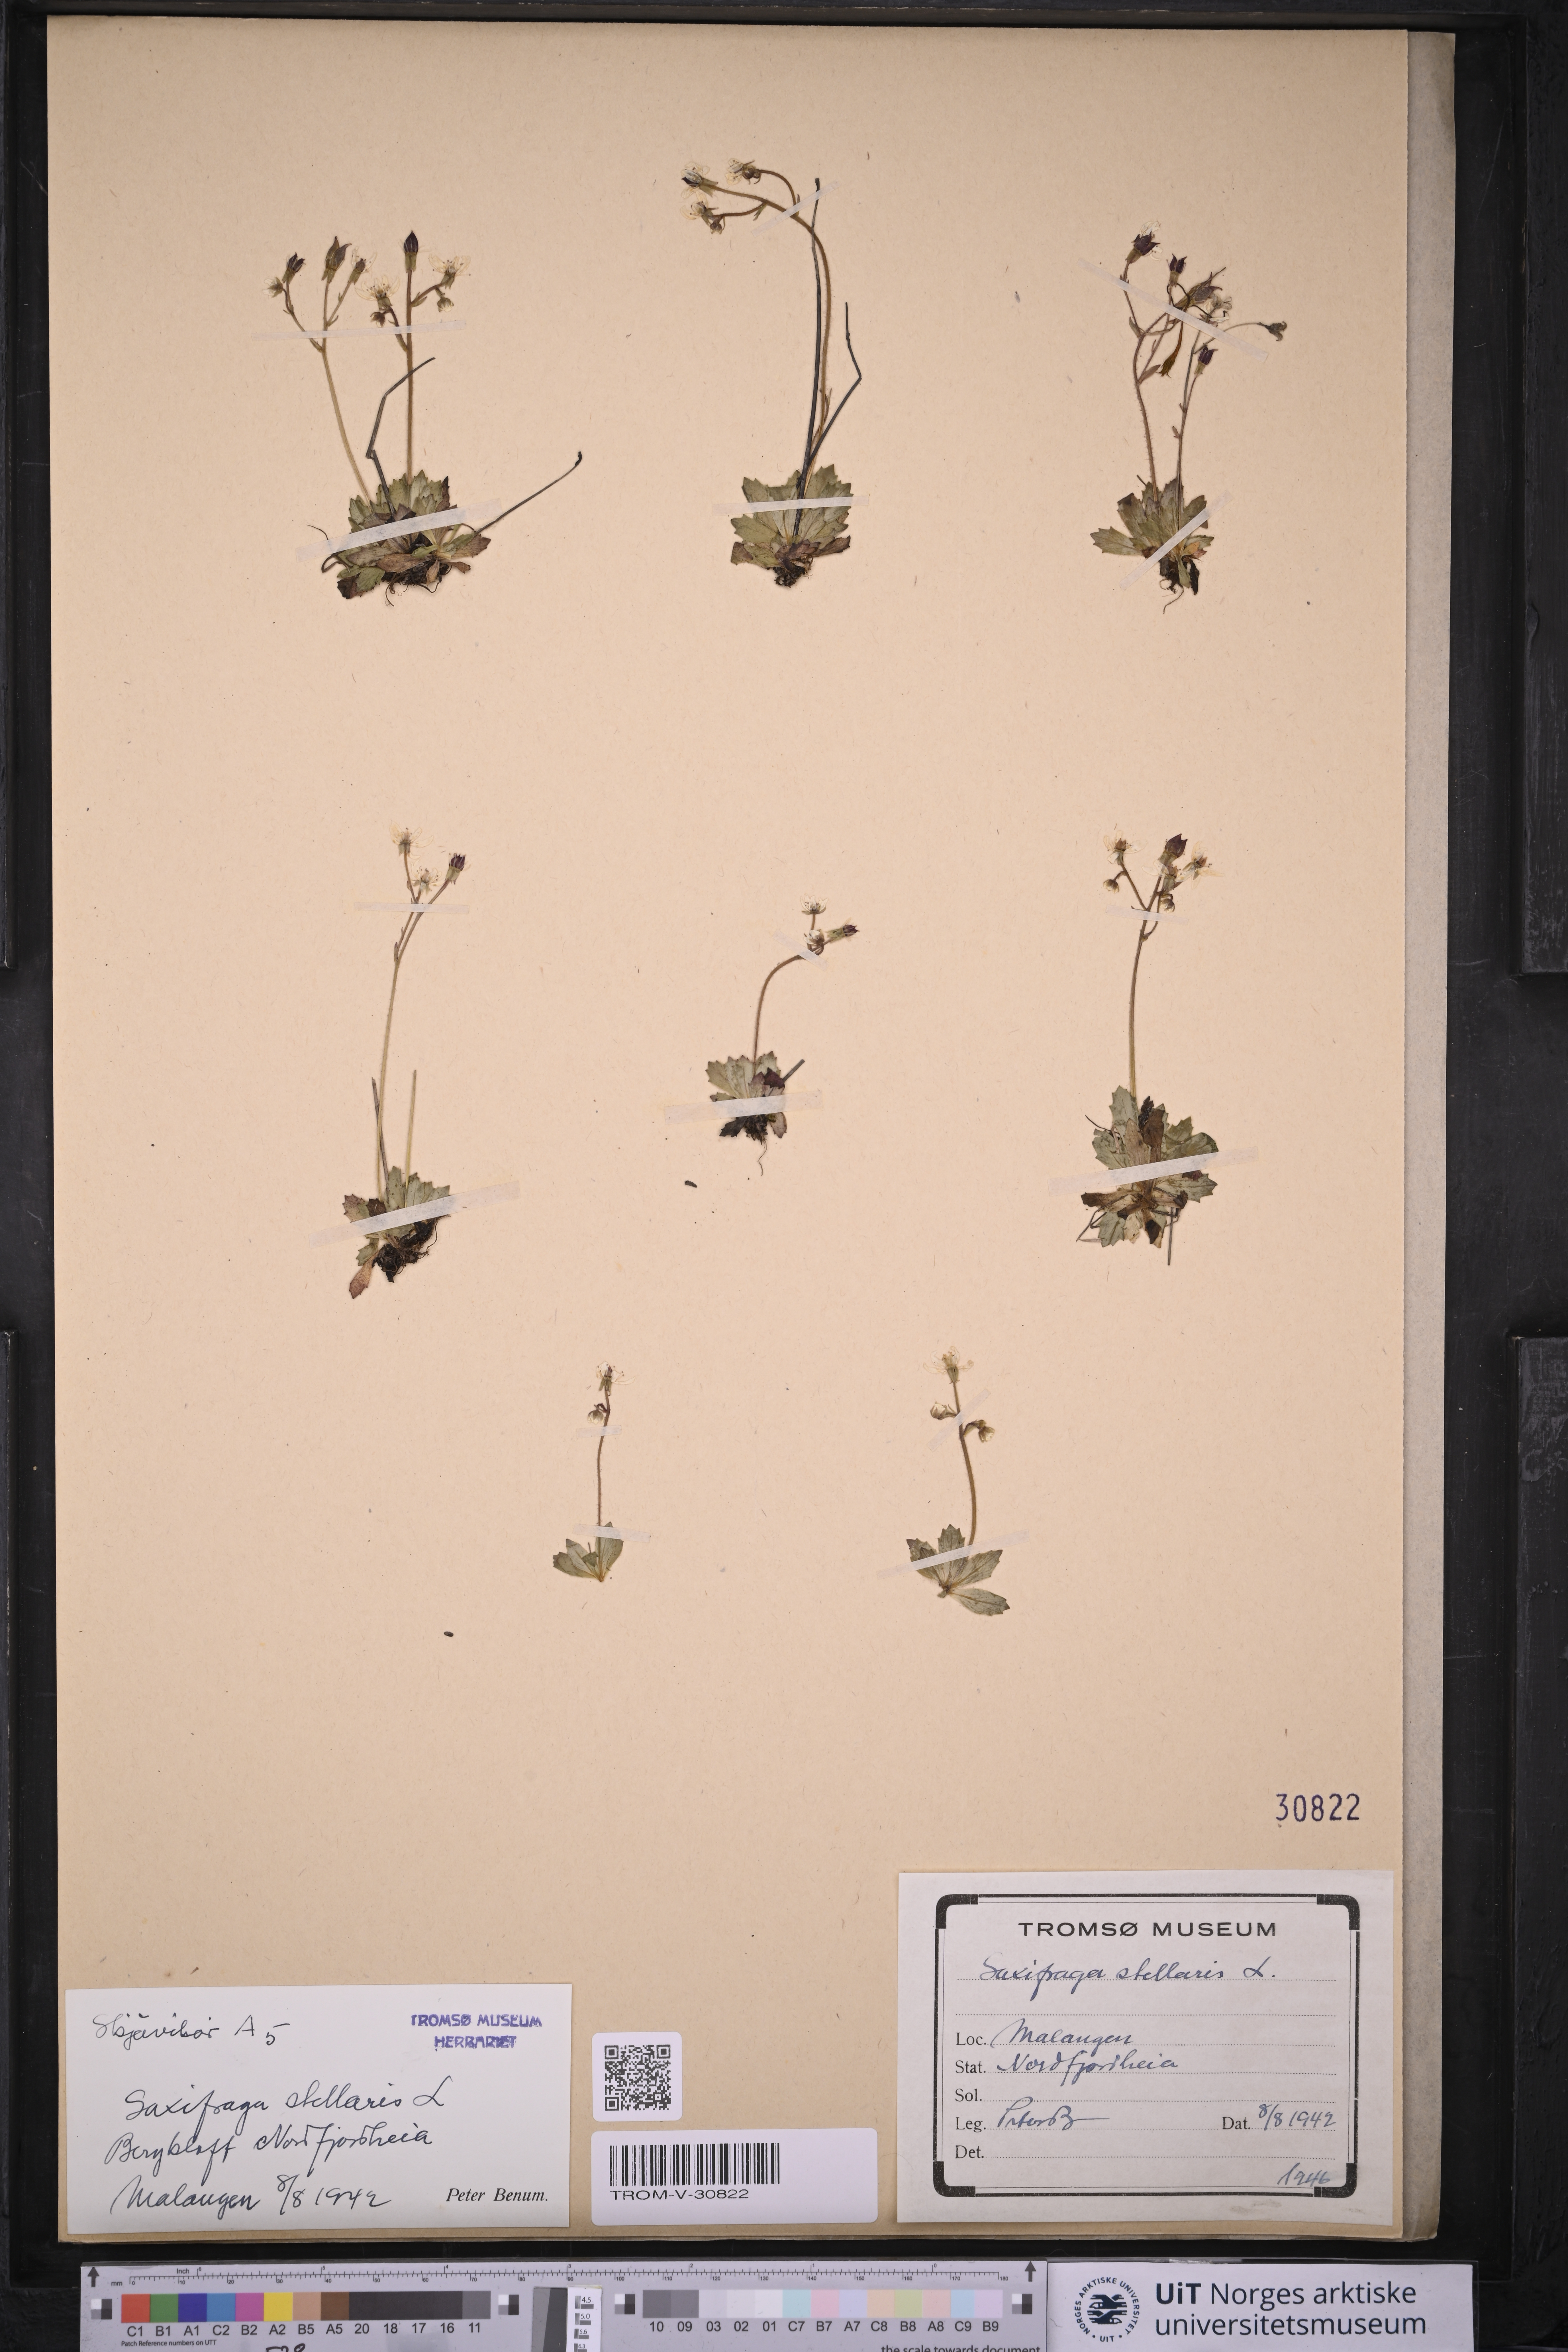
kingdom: Plantae
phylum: Tracheophyta
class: Magnoliopsida
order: Saxifragales
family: Saxifragaceae
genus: Micranthes
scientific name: Micranthes stellaris
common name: Starry saxifrage
